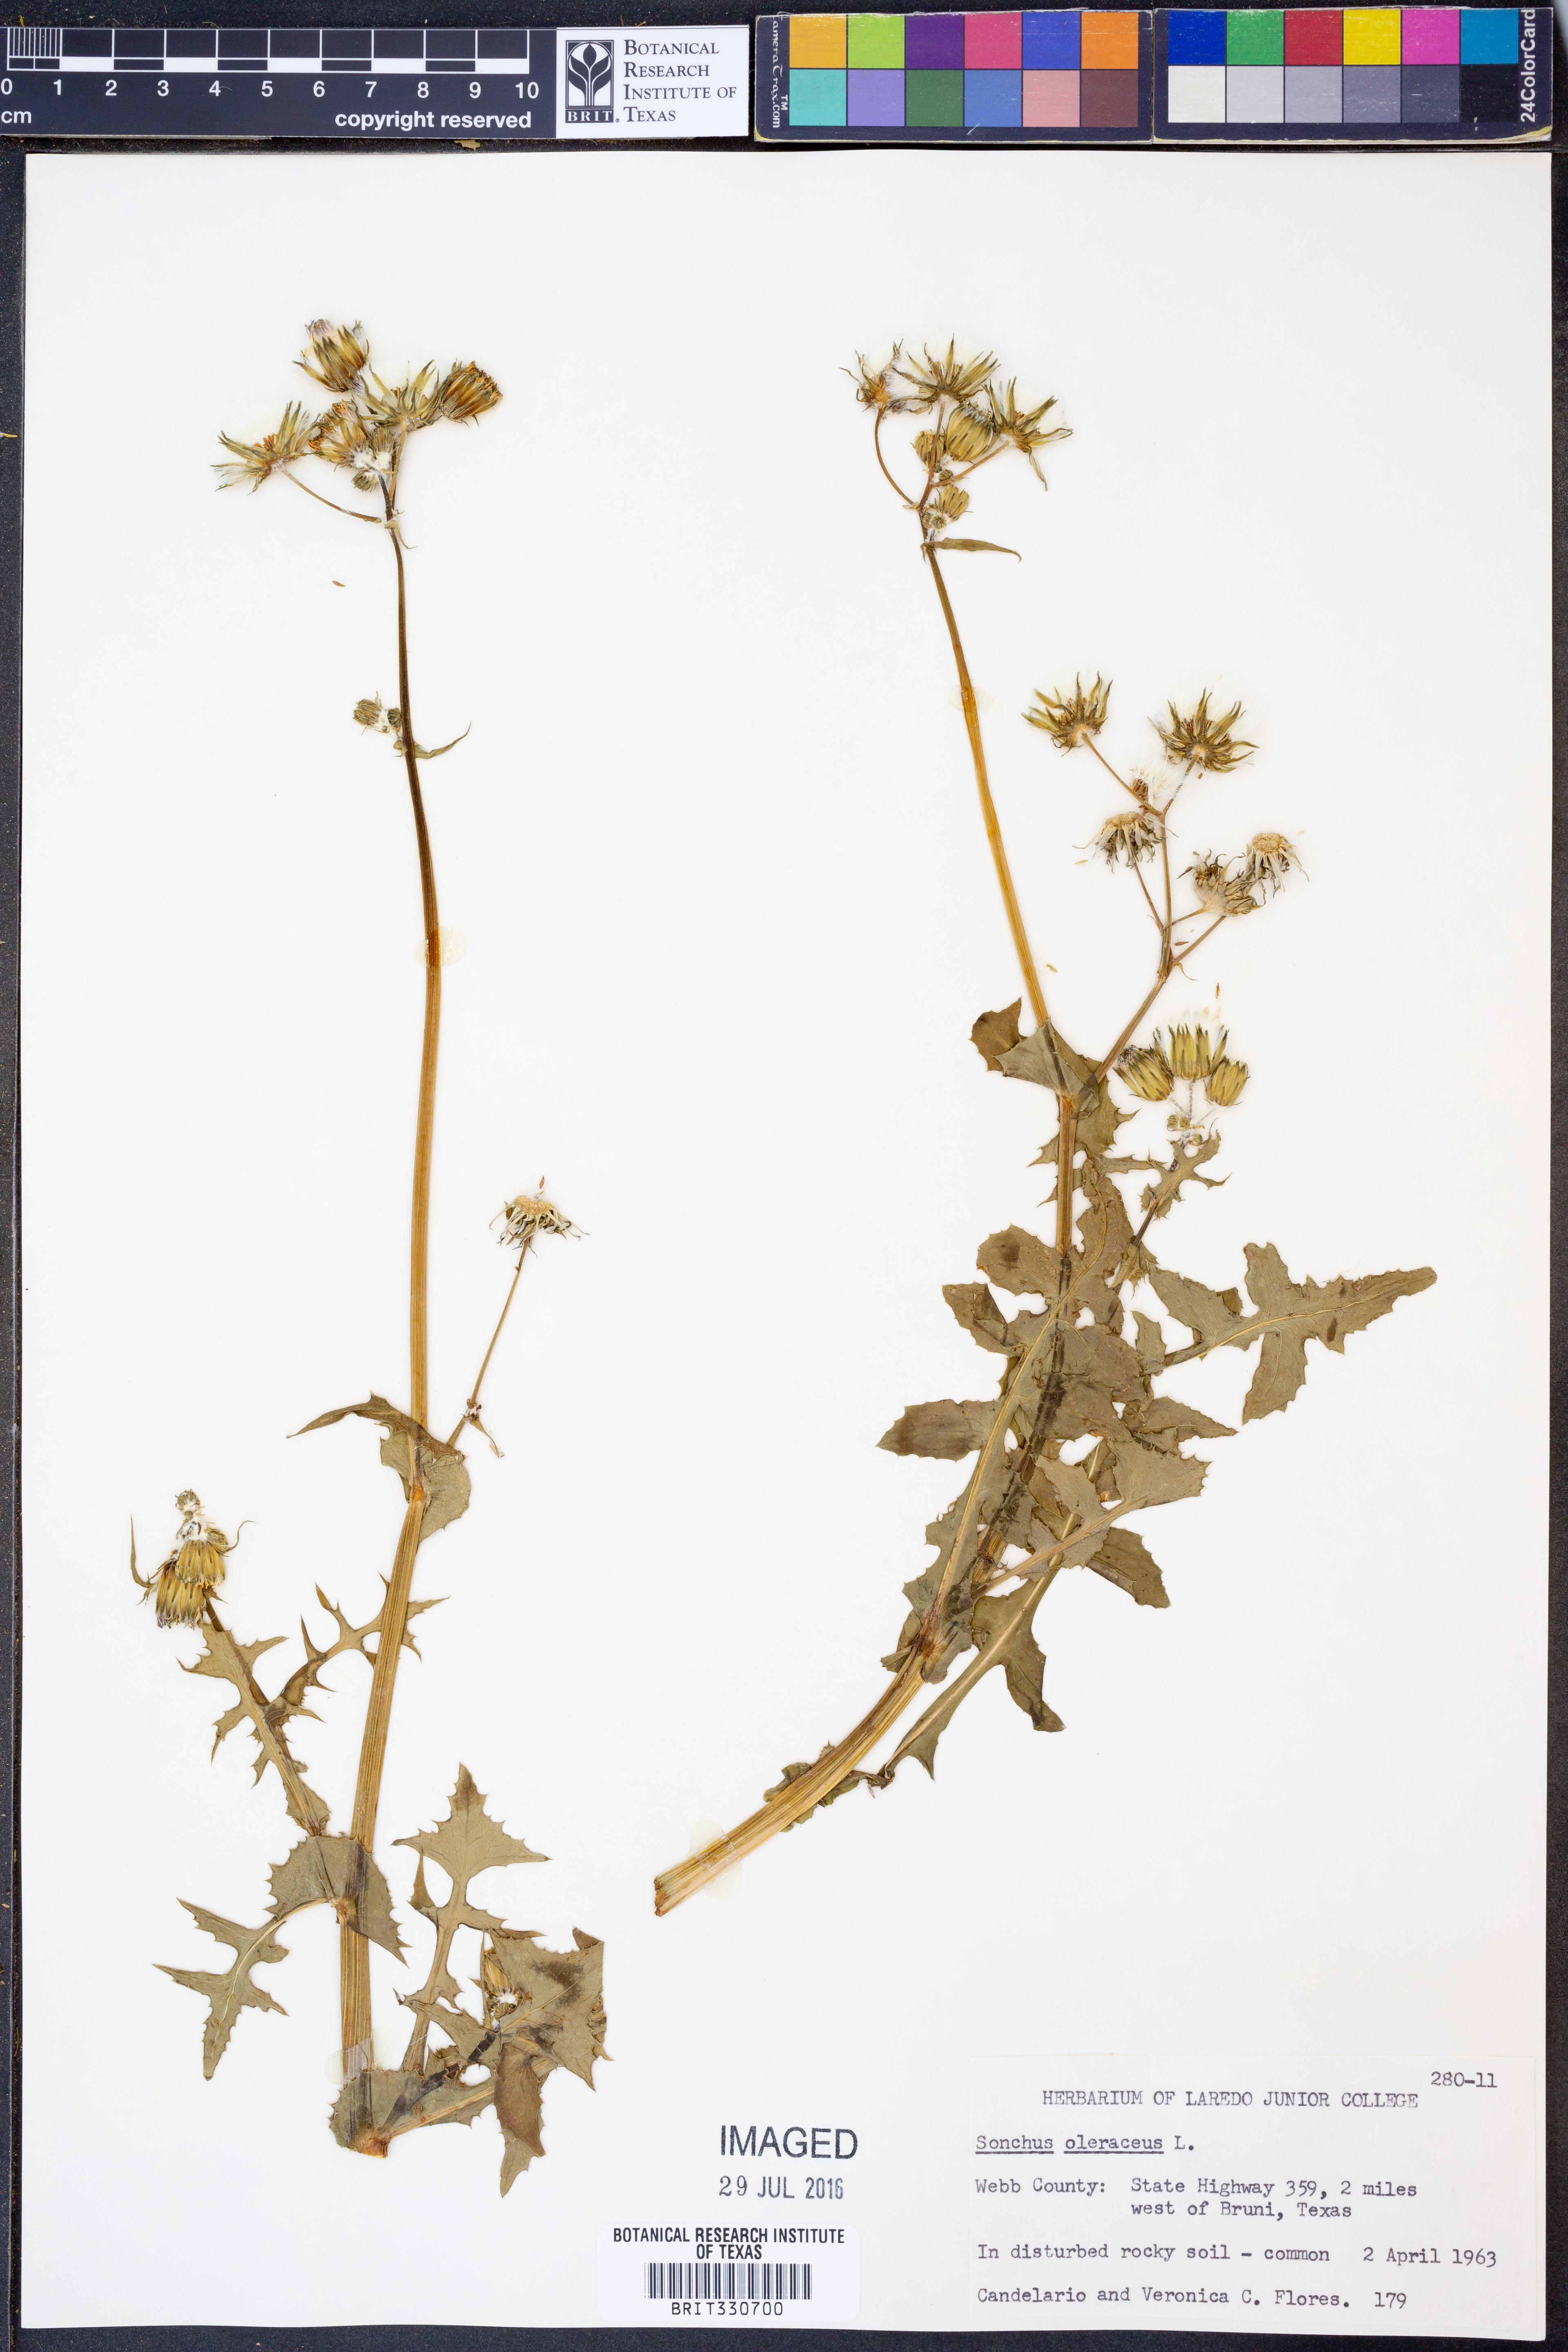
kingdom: Plantae
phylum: Tracheophyta
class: Magnoliopsida
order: Asterales
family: Asteraceae
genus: Sonchus
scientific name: Sonchus oleraceus
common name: Common sowthistle
